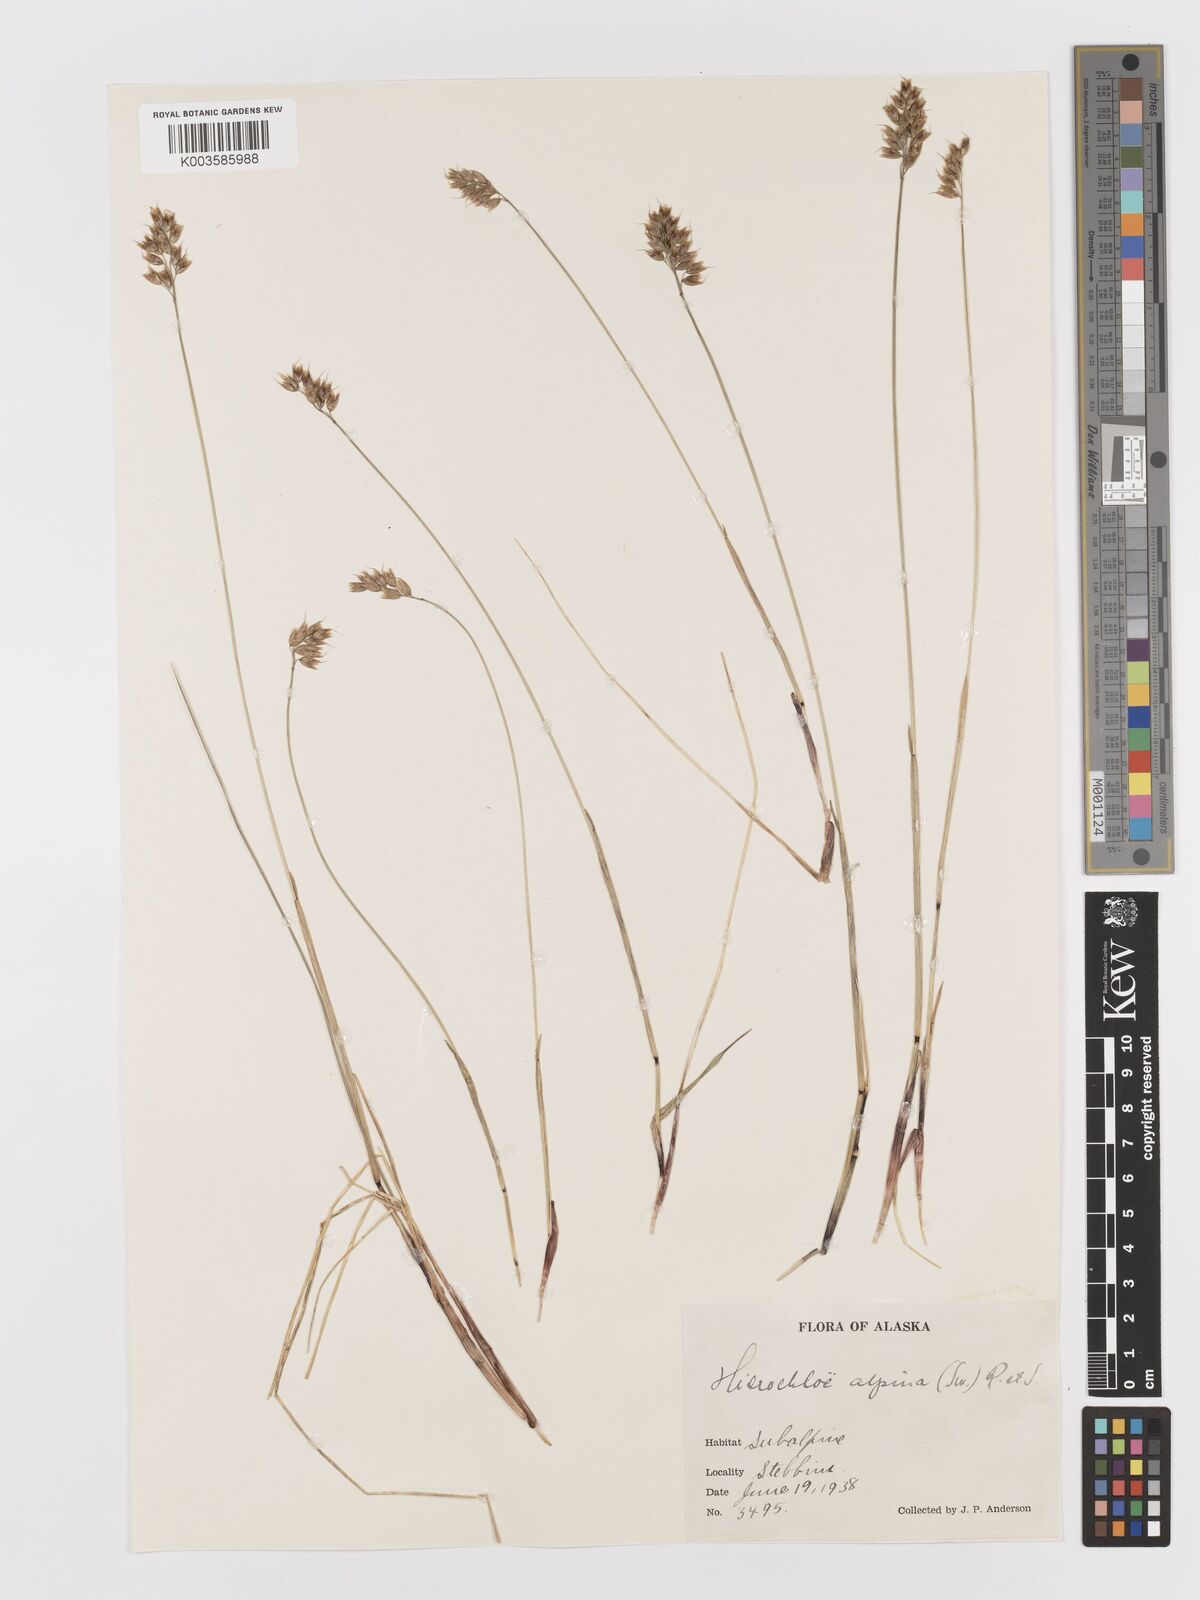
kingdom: Plantae
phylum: Tracheophyta
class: Liliopsida
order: Poales
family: Poaceae
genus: Anthoxanthum
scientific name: Anthoxanthum monticola
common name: Alpine sweetgrass
